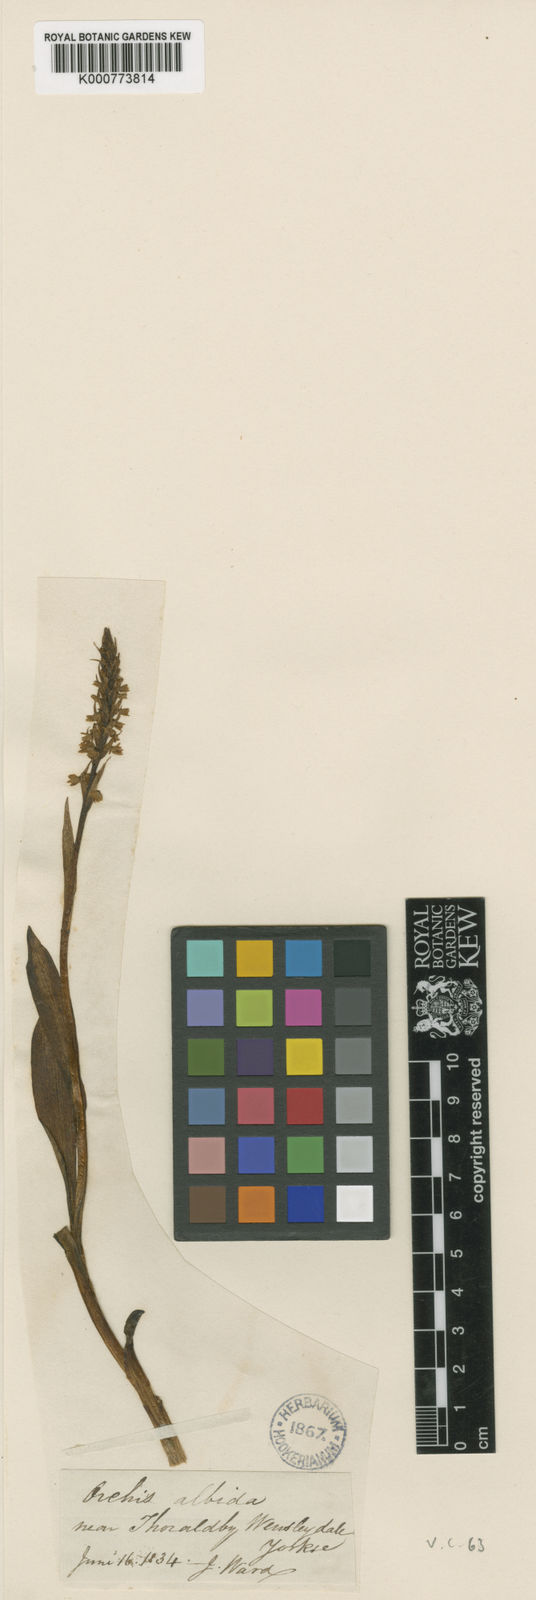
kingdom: Plantae
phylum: Tracheophyta
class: Liliopsida
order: Asparagales
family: Orchidaceae
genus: Pseudorchis
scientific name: Pseudorchis
